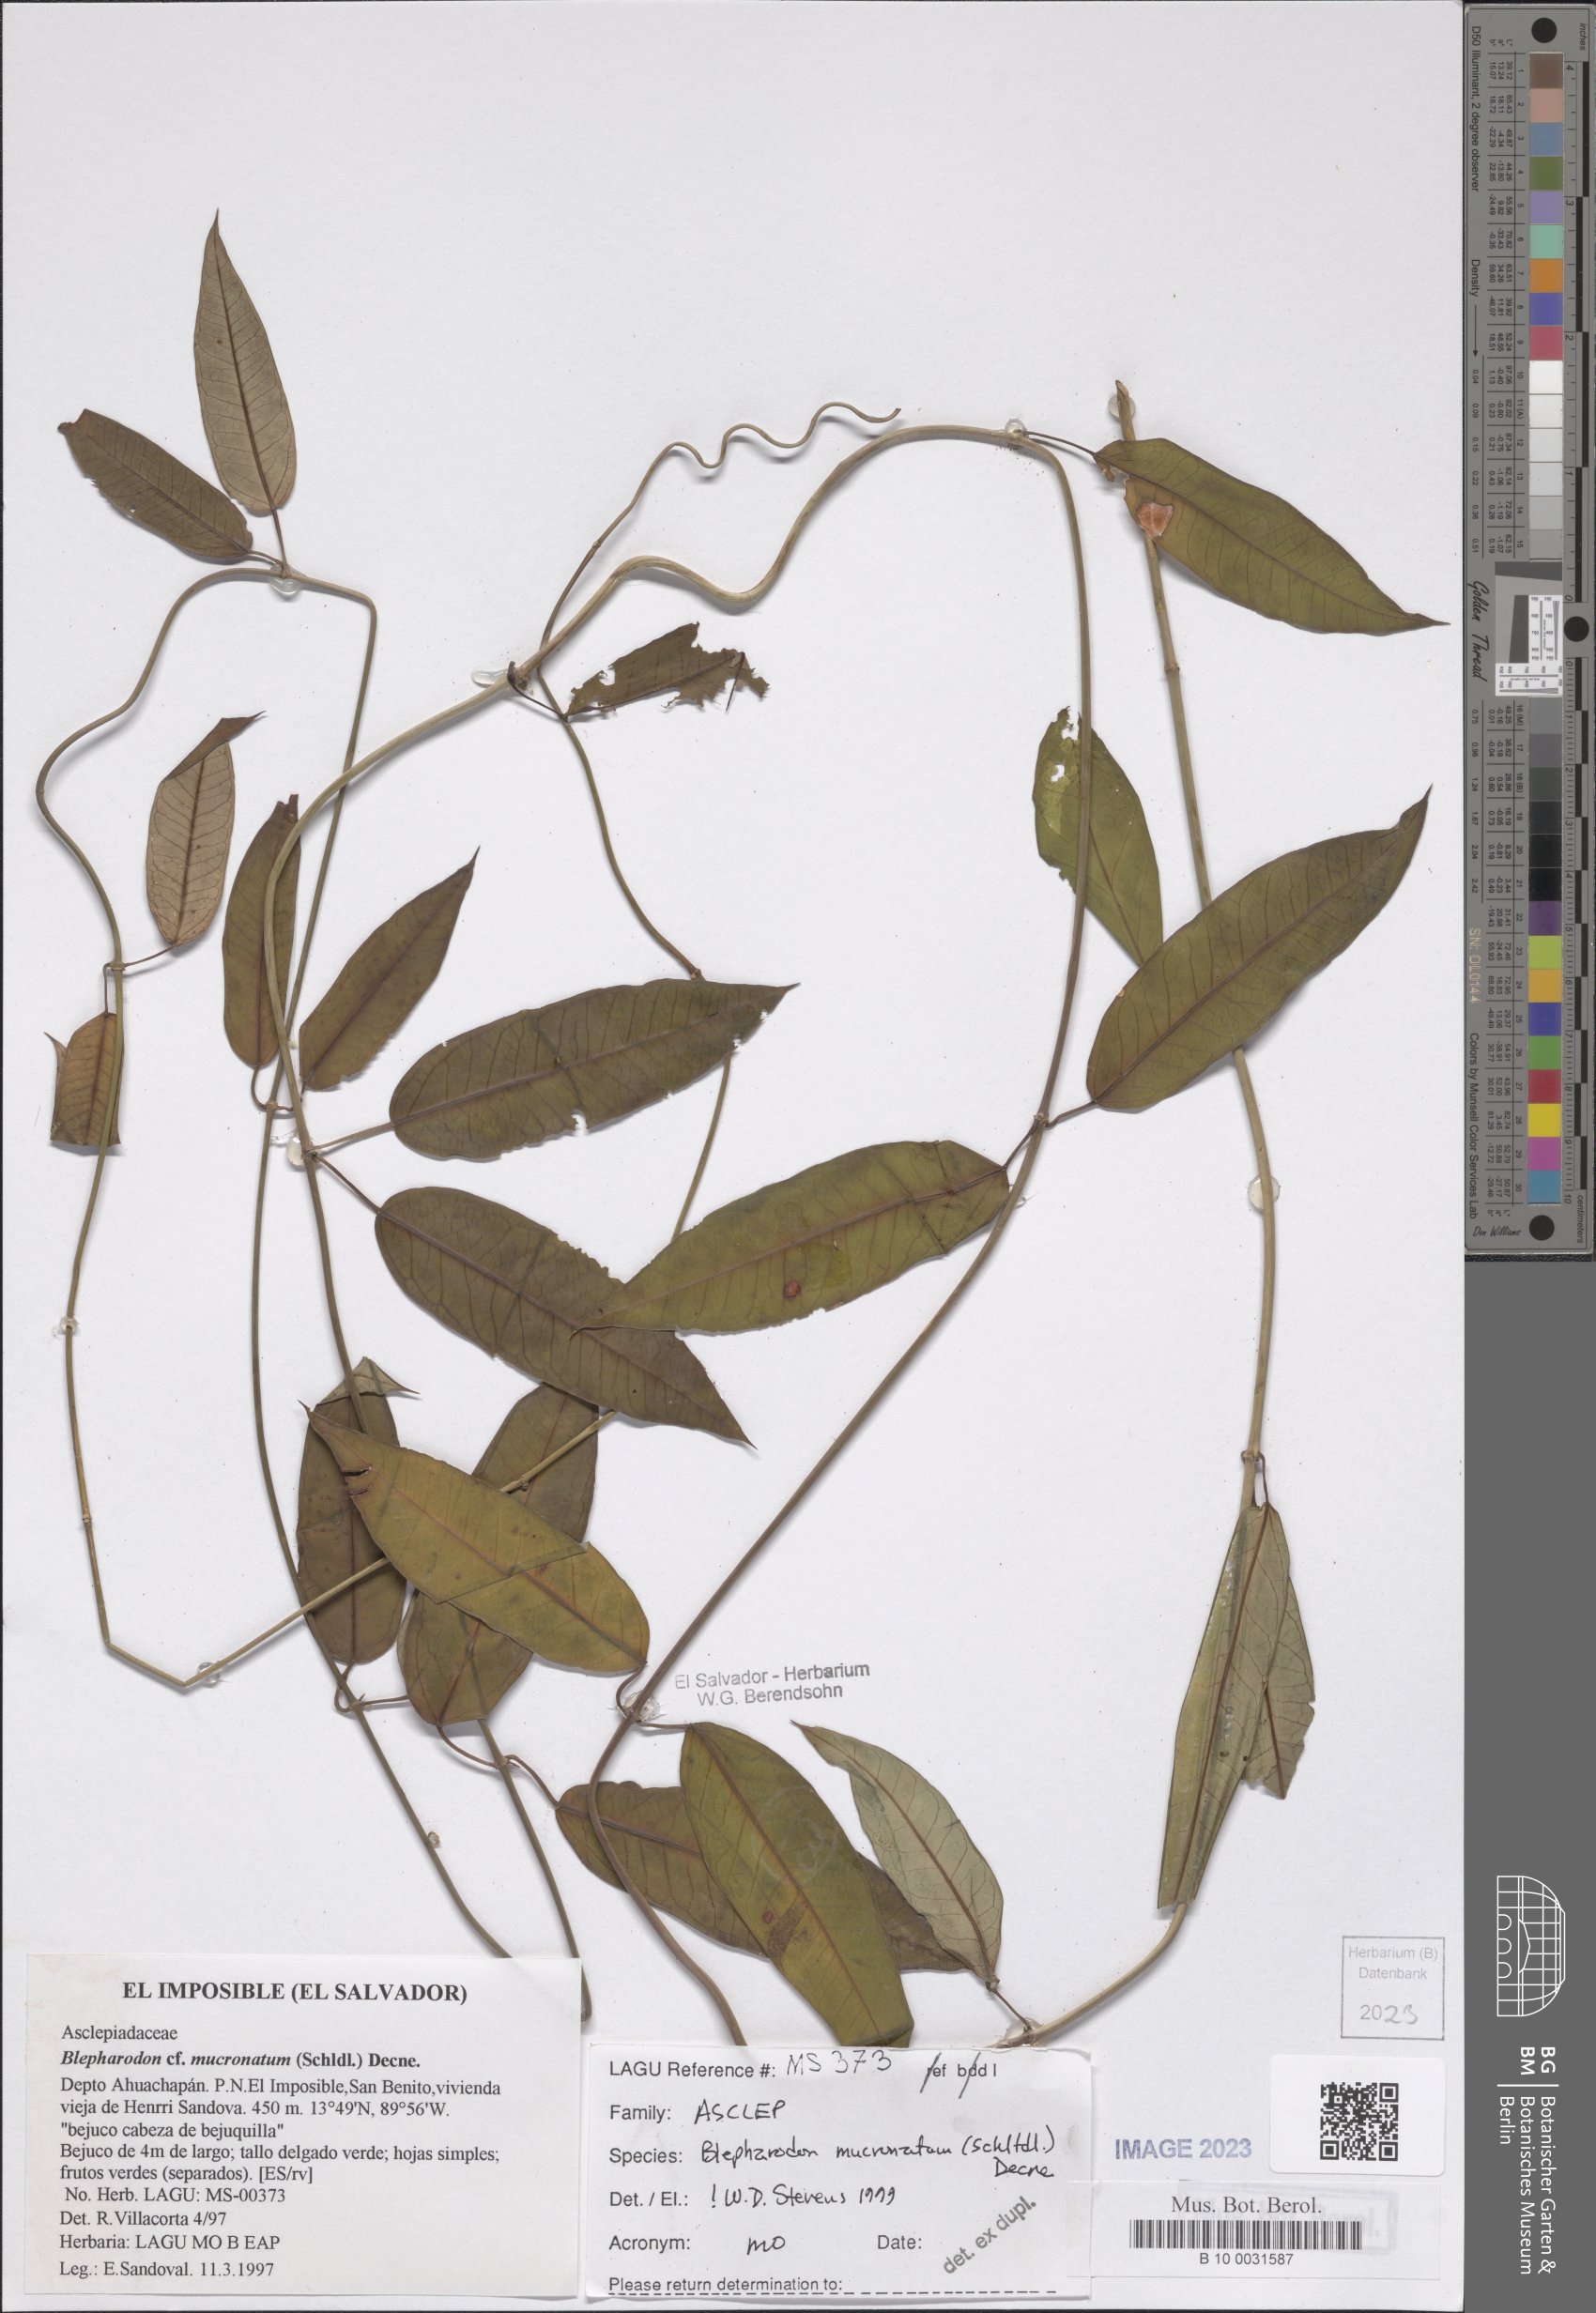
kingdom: Plantae
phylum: Tracheophyta
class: Magnoliopsida
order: Gentianales
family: Apocynaceae
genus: Vailia
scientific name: Vailia anomala
